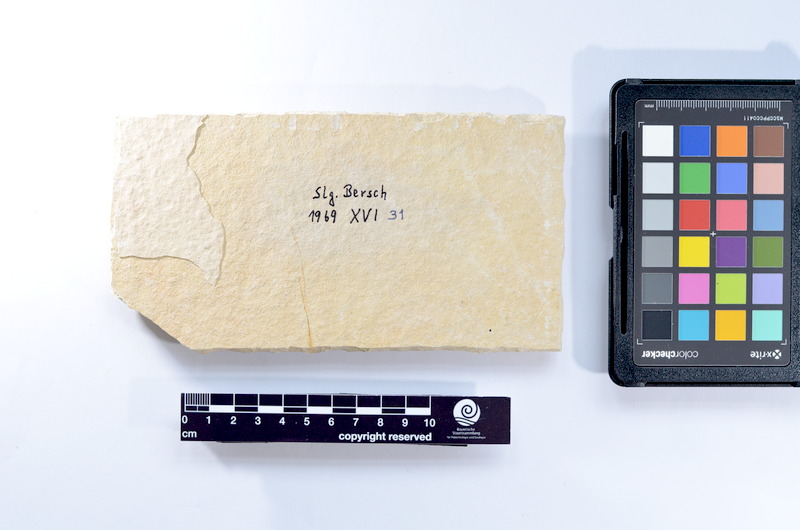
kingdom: Animalia
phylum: Chordata
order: Elopiformes
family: Anaethalionidae
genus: Anaethalion
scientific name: Anaethalion knorri
